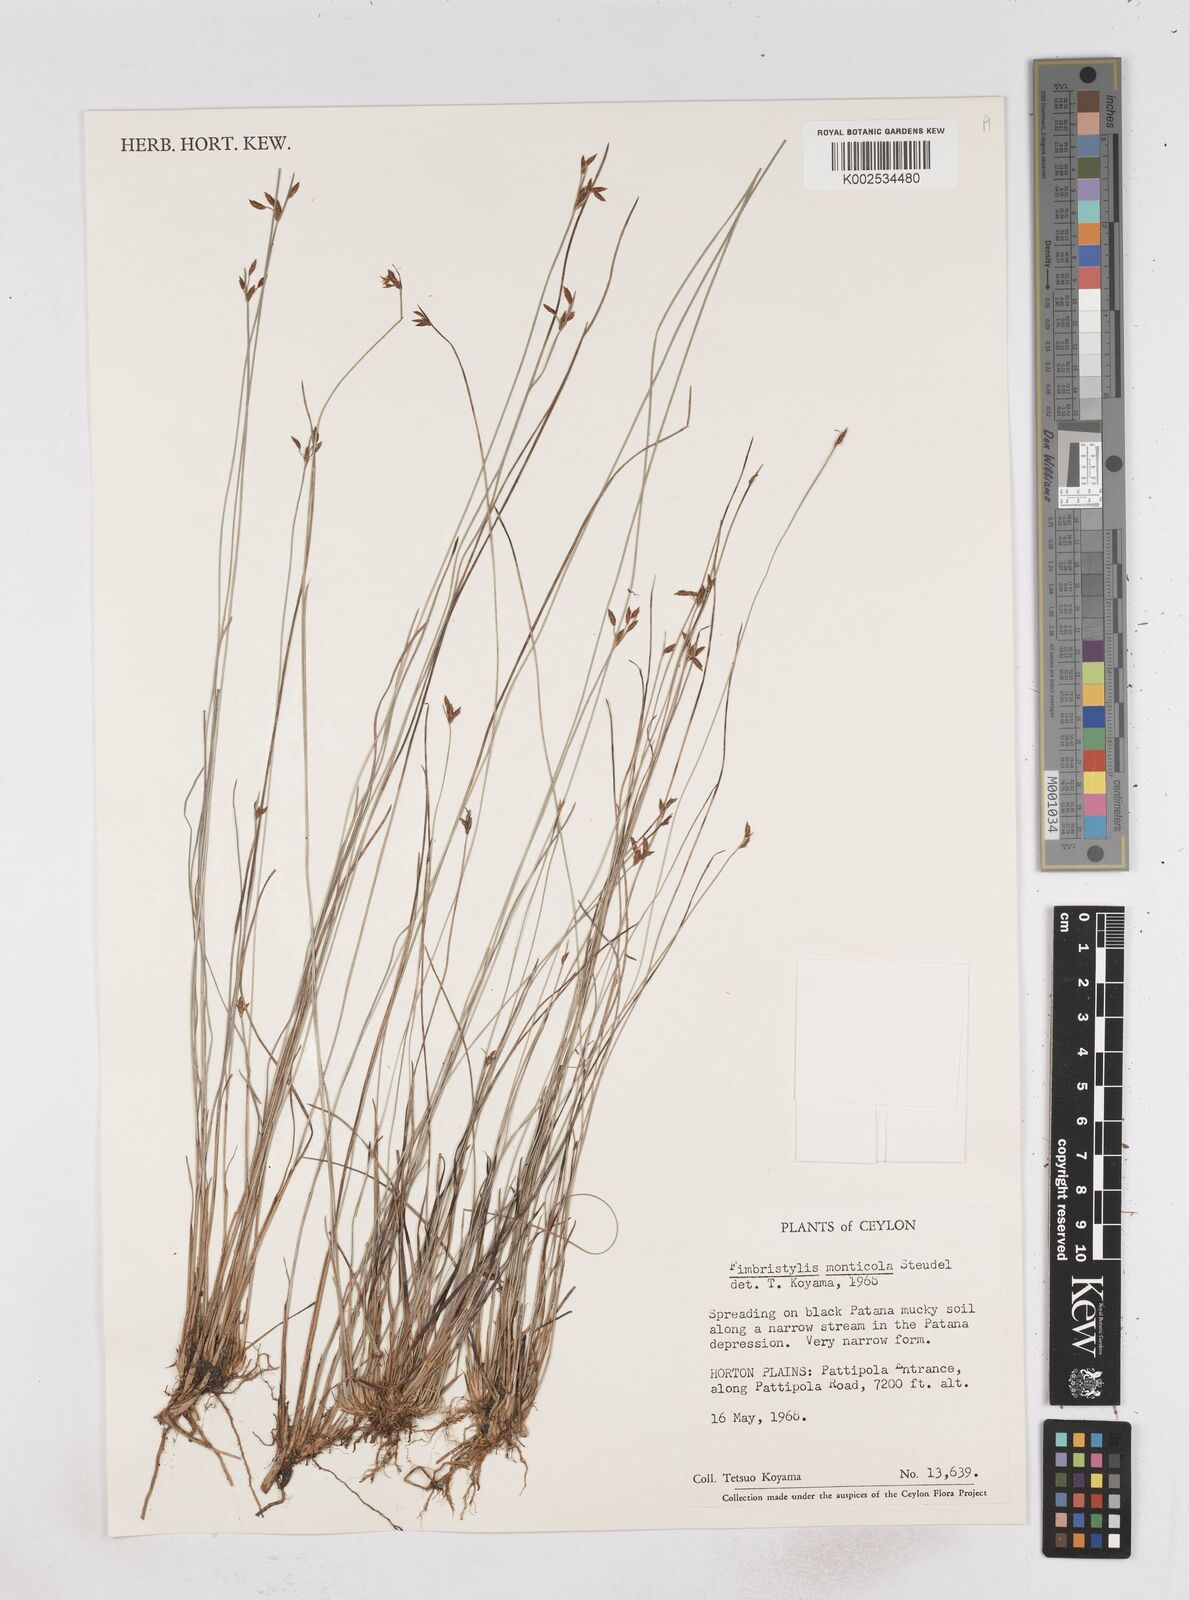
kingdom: Plantae
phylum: Tracheophyta
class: Liliopsida
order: Poales
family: Cyperaceae
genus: Fimbristylis
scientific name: Fimbristylis monticola
